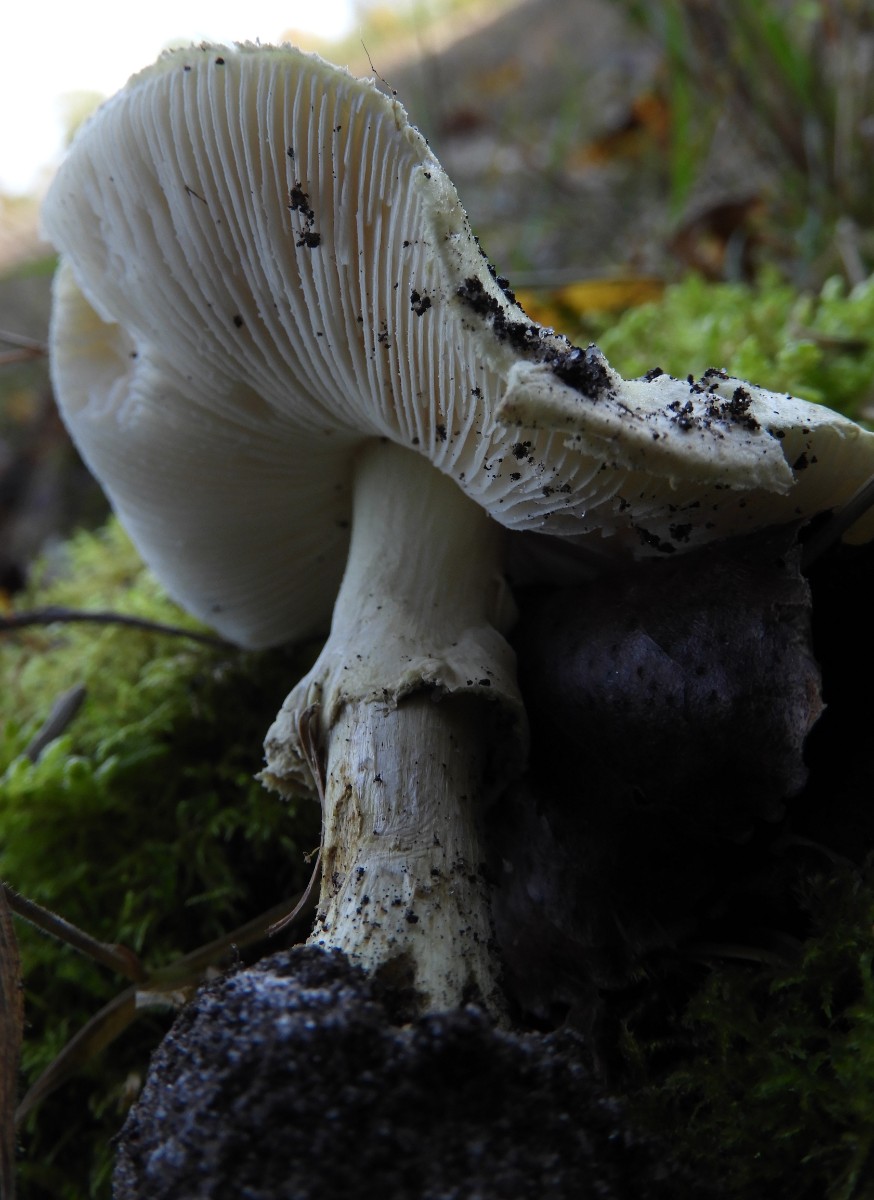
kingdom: Fungi
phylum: Basidiomycota
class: Agaricomycetes
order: Agaricales
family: Amanitaceae
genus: Amanita
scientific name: Amanita citrina
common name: kugleknoldet fluesvamp
